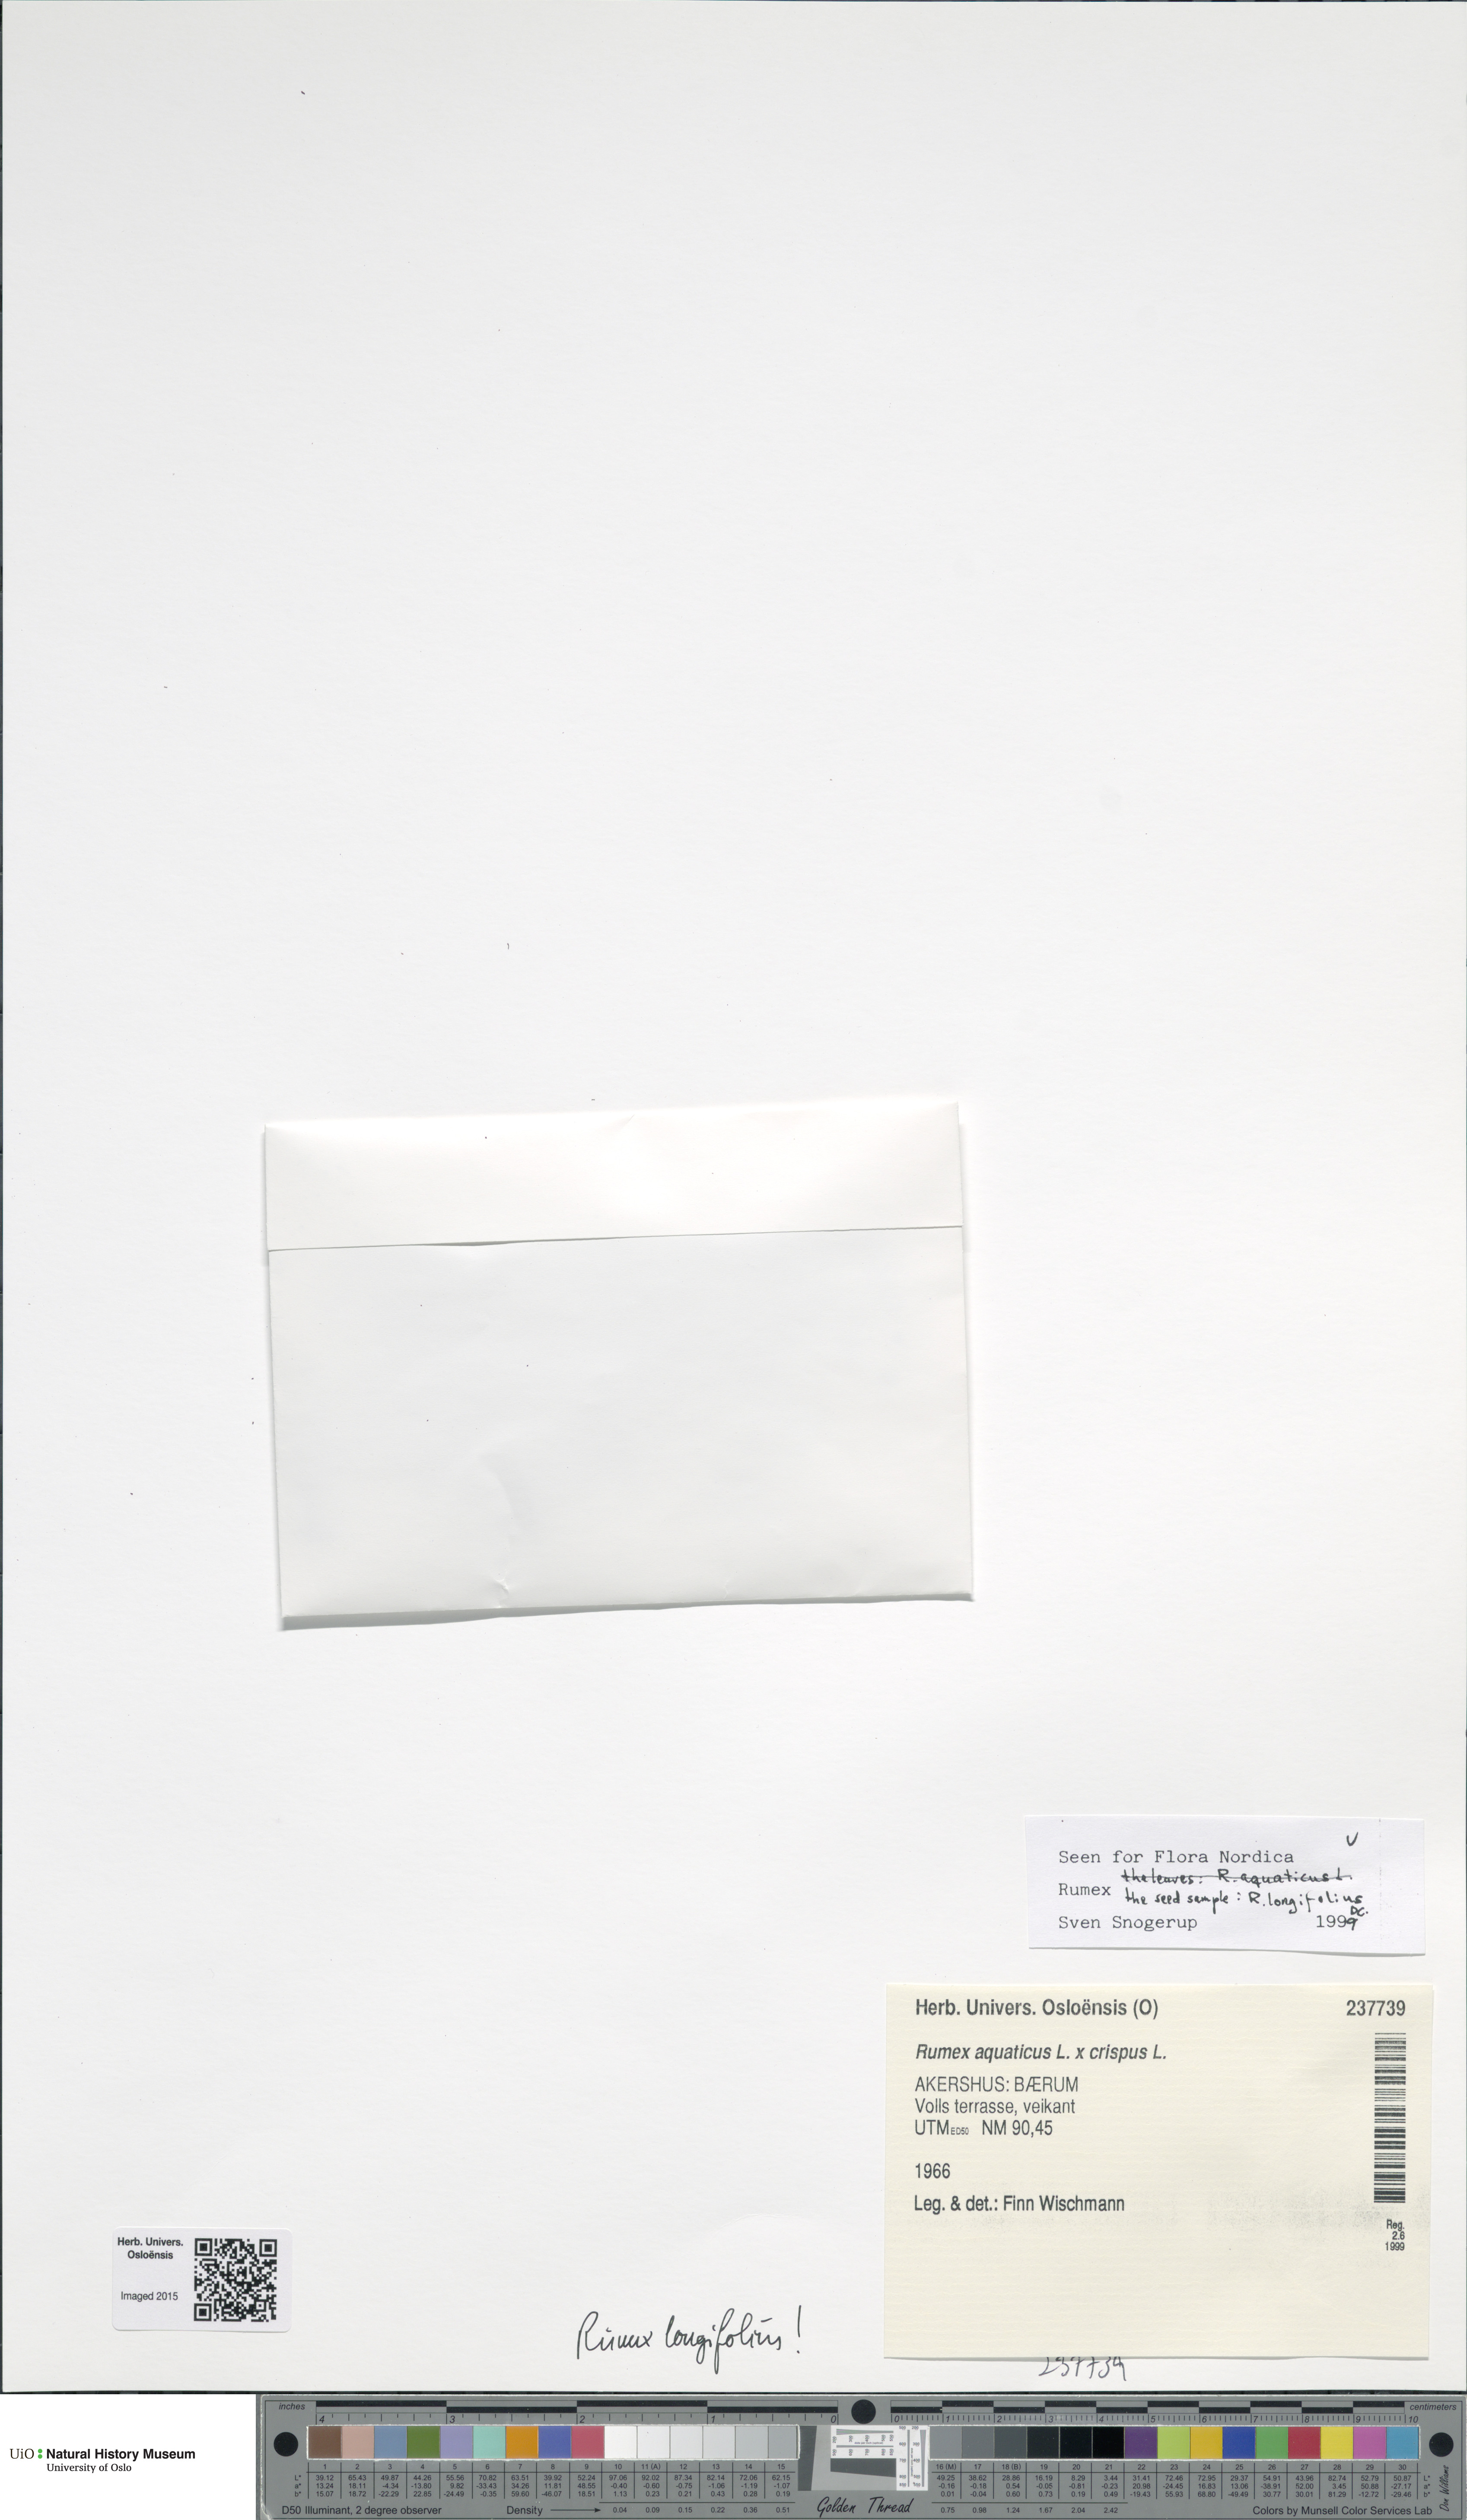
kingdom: Plantae
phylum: Tracheophyta
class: Magnoliopsida
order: Caryophyllales
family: Polygonaceae
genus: Rumex
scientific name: Rumex longifolius
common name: Dooryard dock
